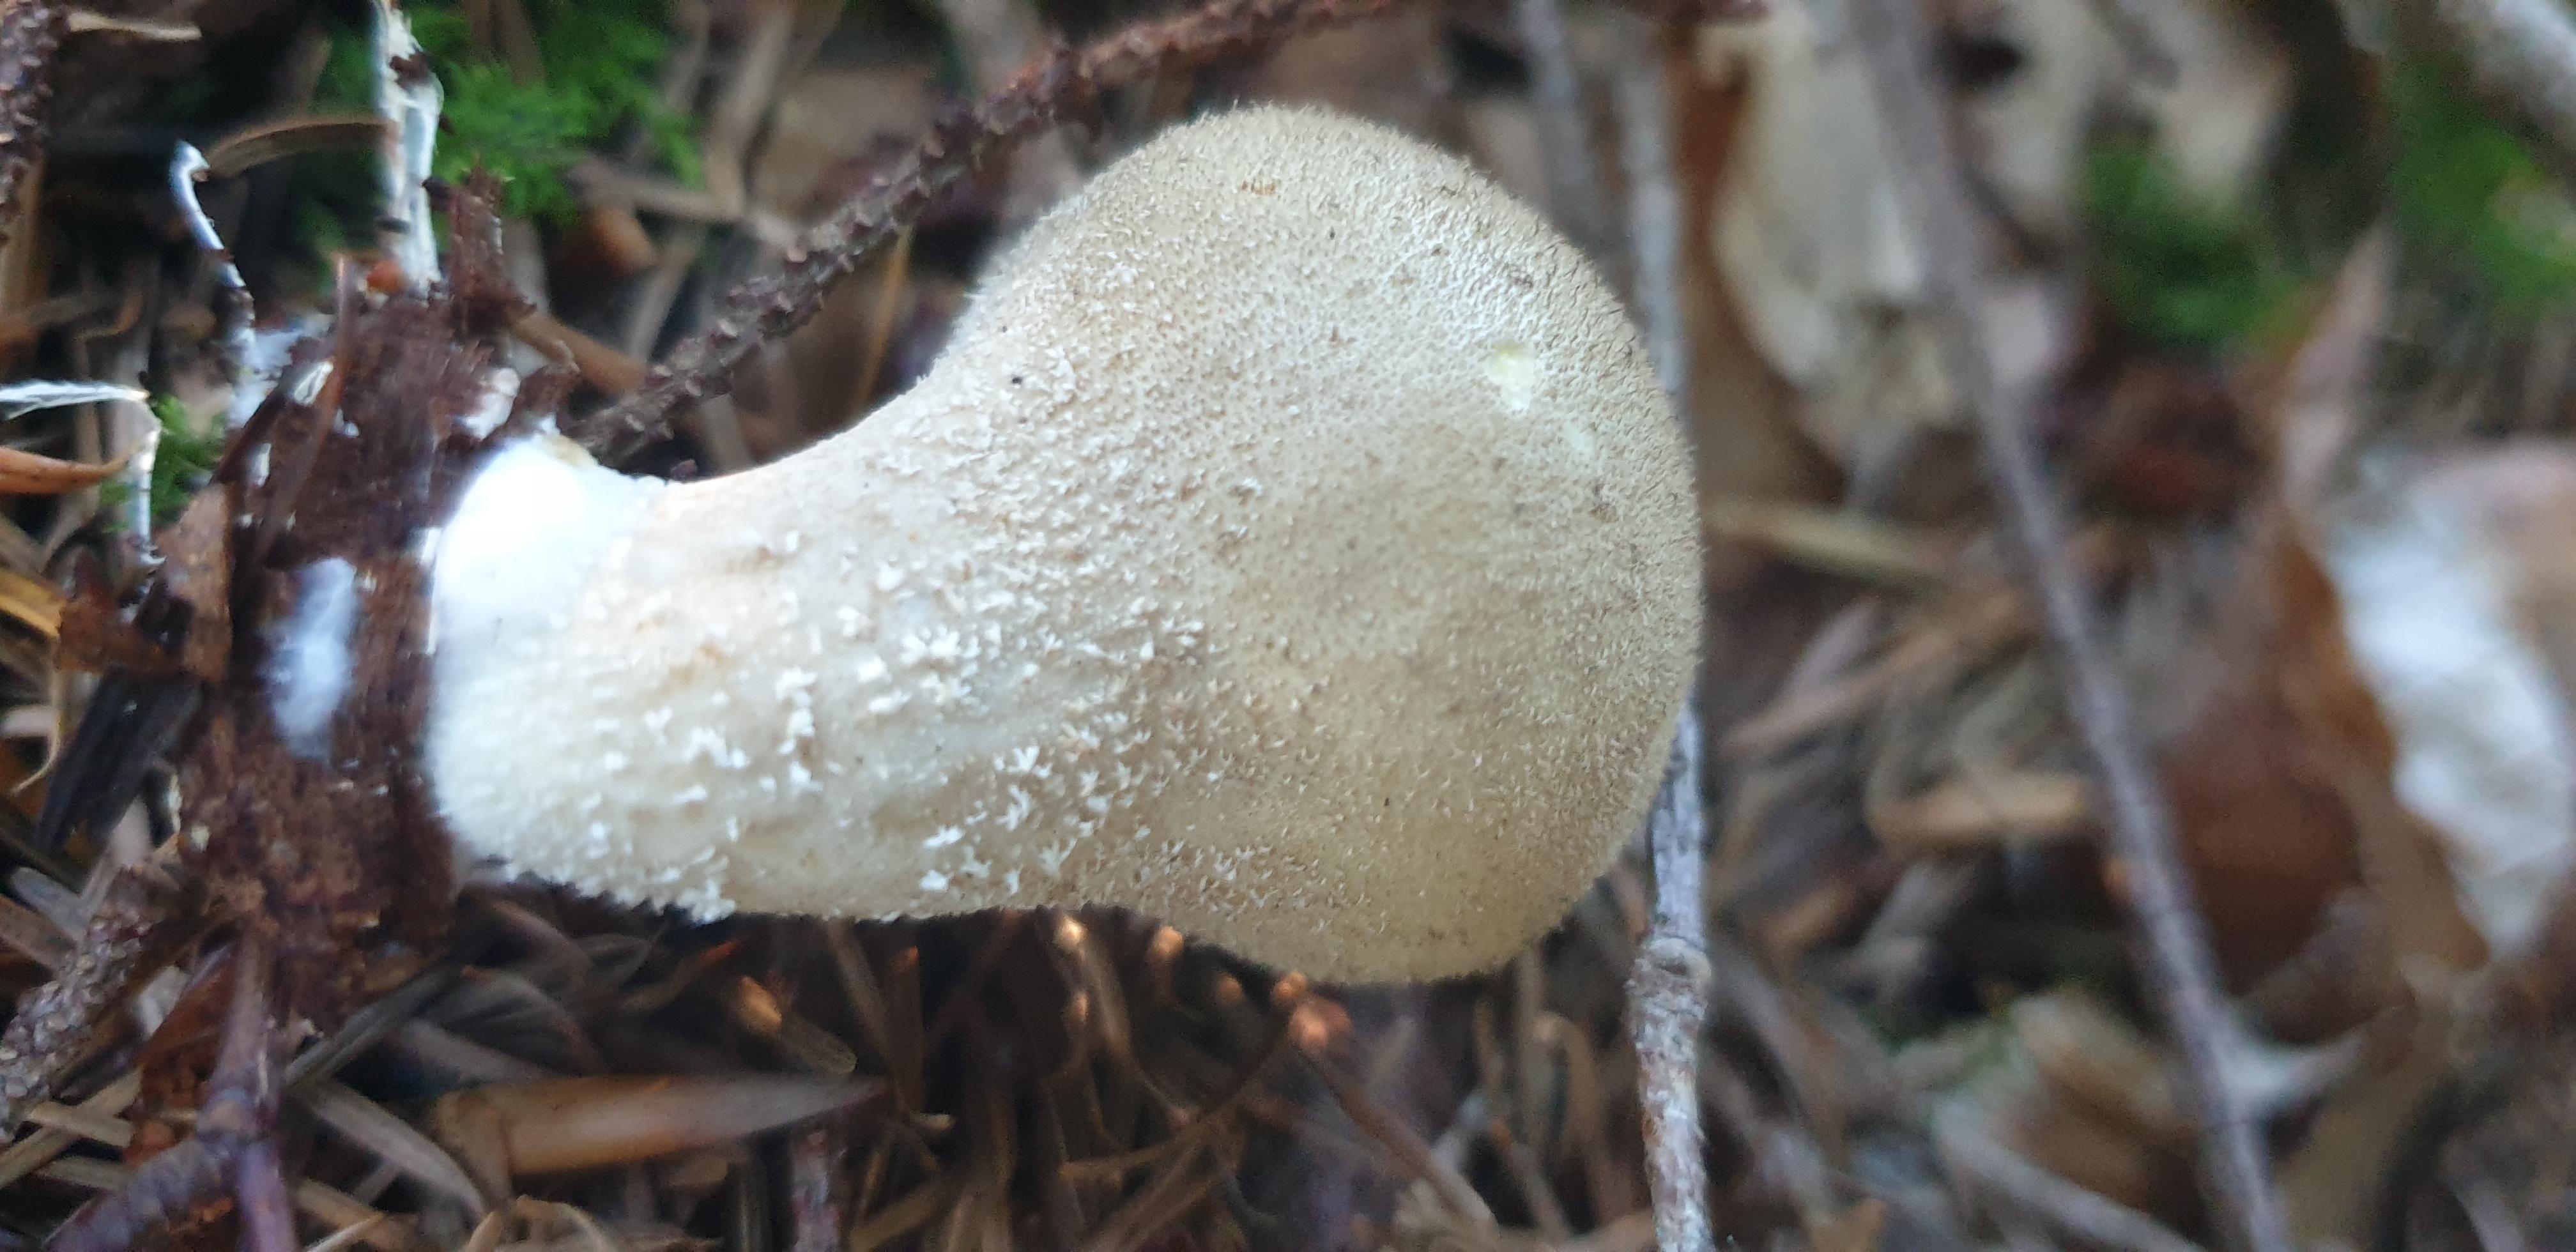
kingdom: Fungi
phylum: Basidiomycota
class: Agaricomycetes
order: Agaricales
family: Lycoperdaceae
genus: Lycoperdon
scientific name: Lycoperdon molle
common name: skov-støvbold
